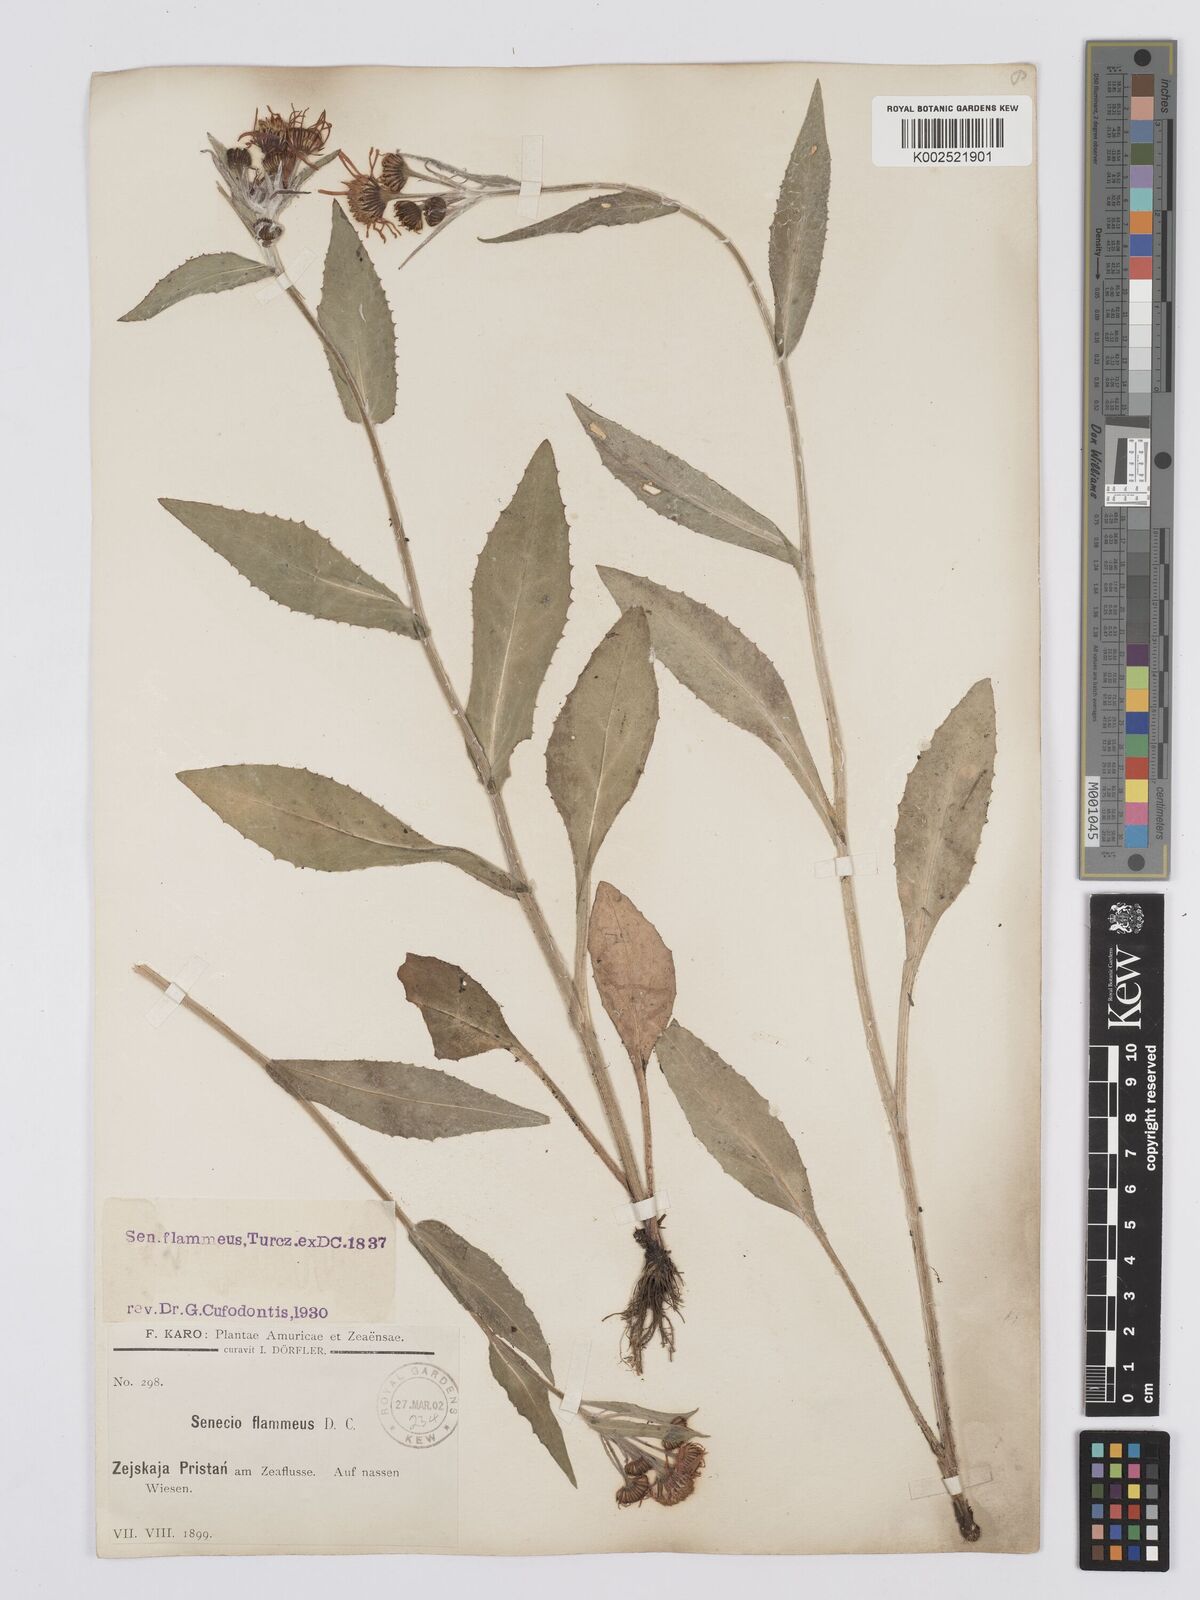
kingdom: Plantae
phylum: Tracheophyta
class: Magnoliopsida
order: Asterales
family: Asteraceae
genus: Tephroseris
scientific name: Tephroseris flammea
